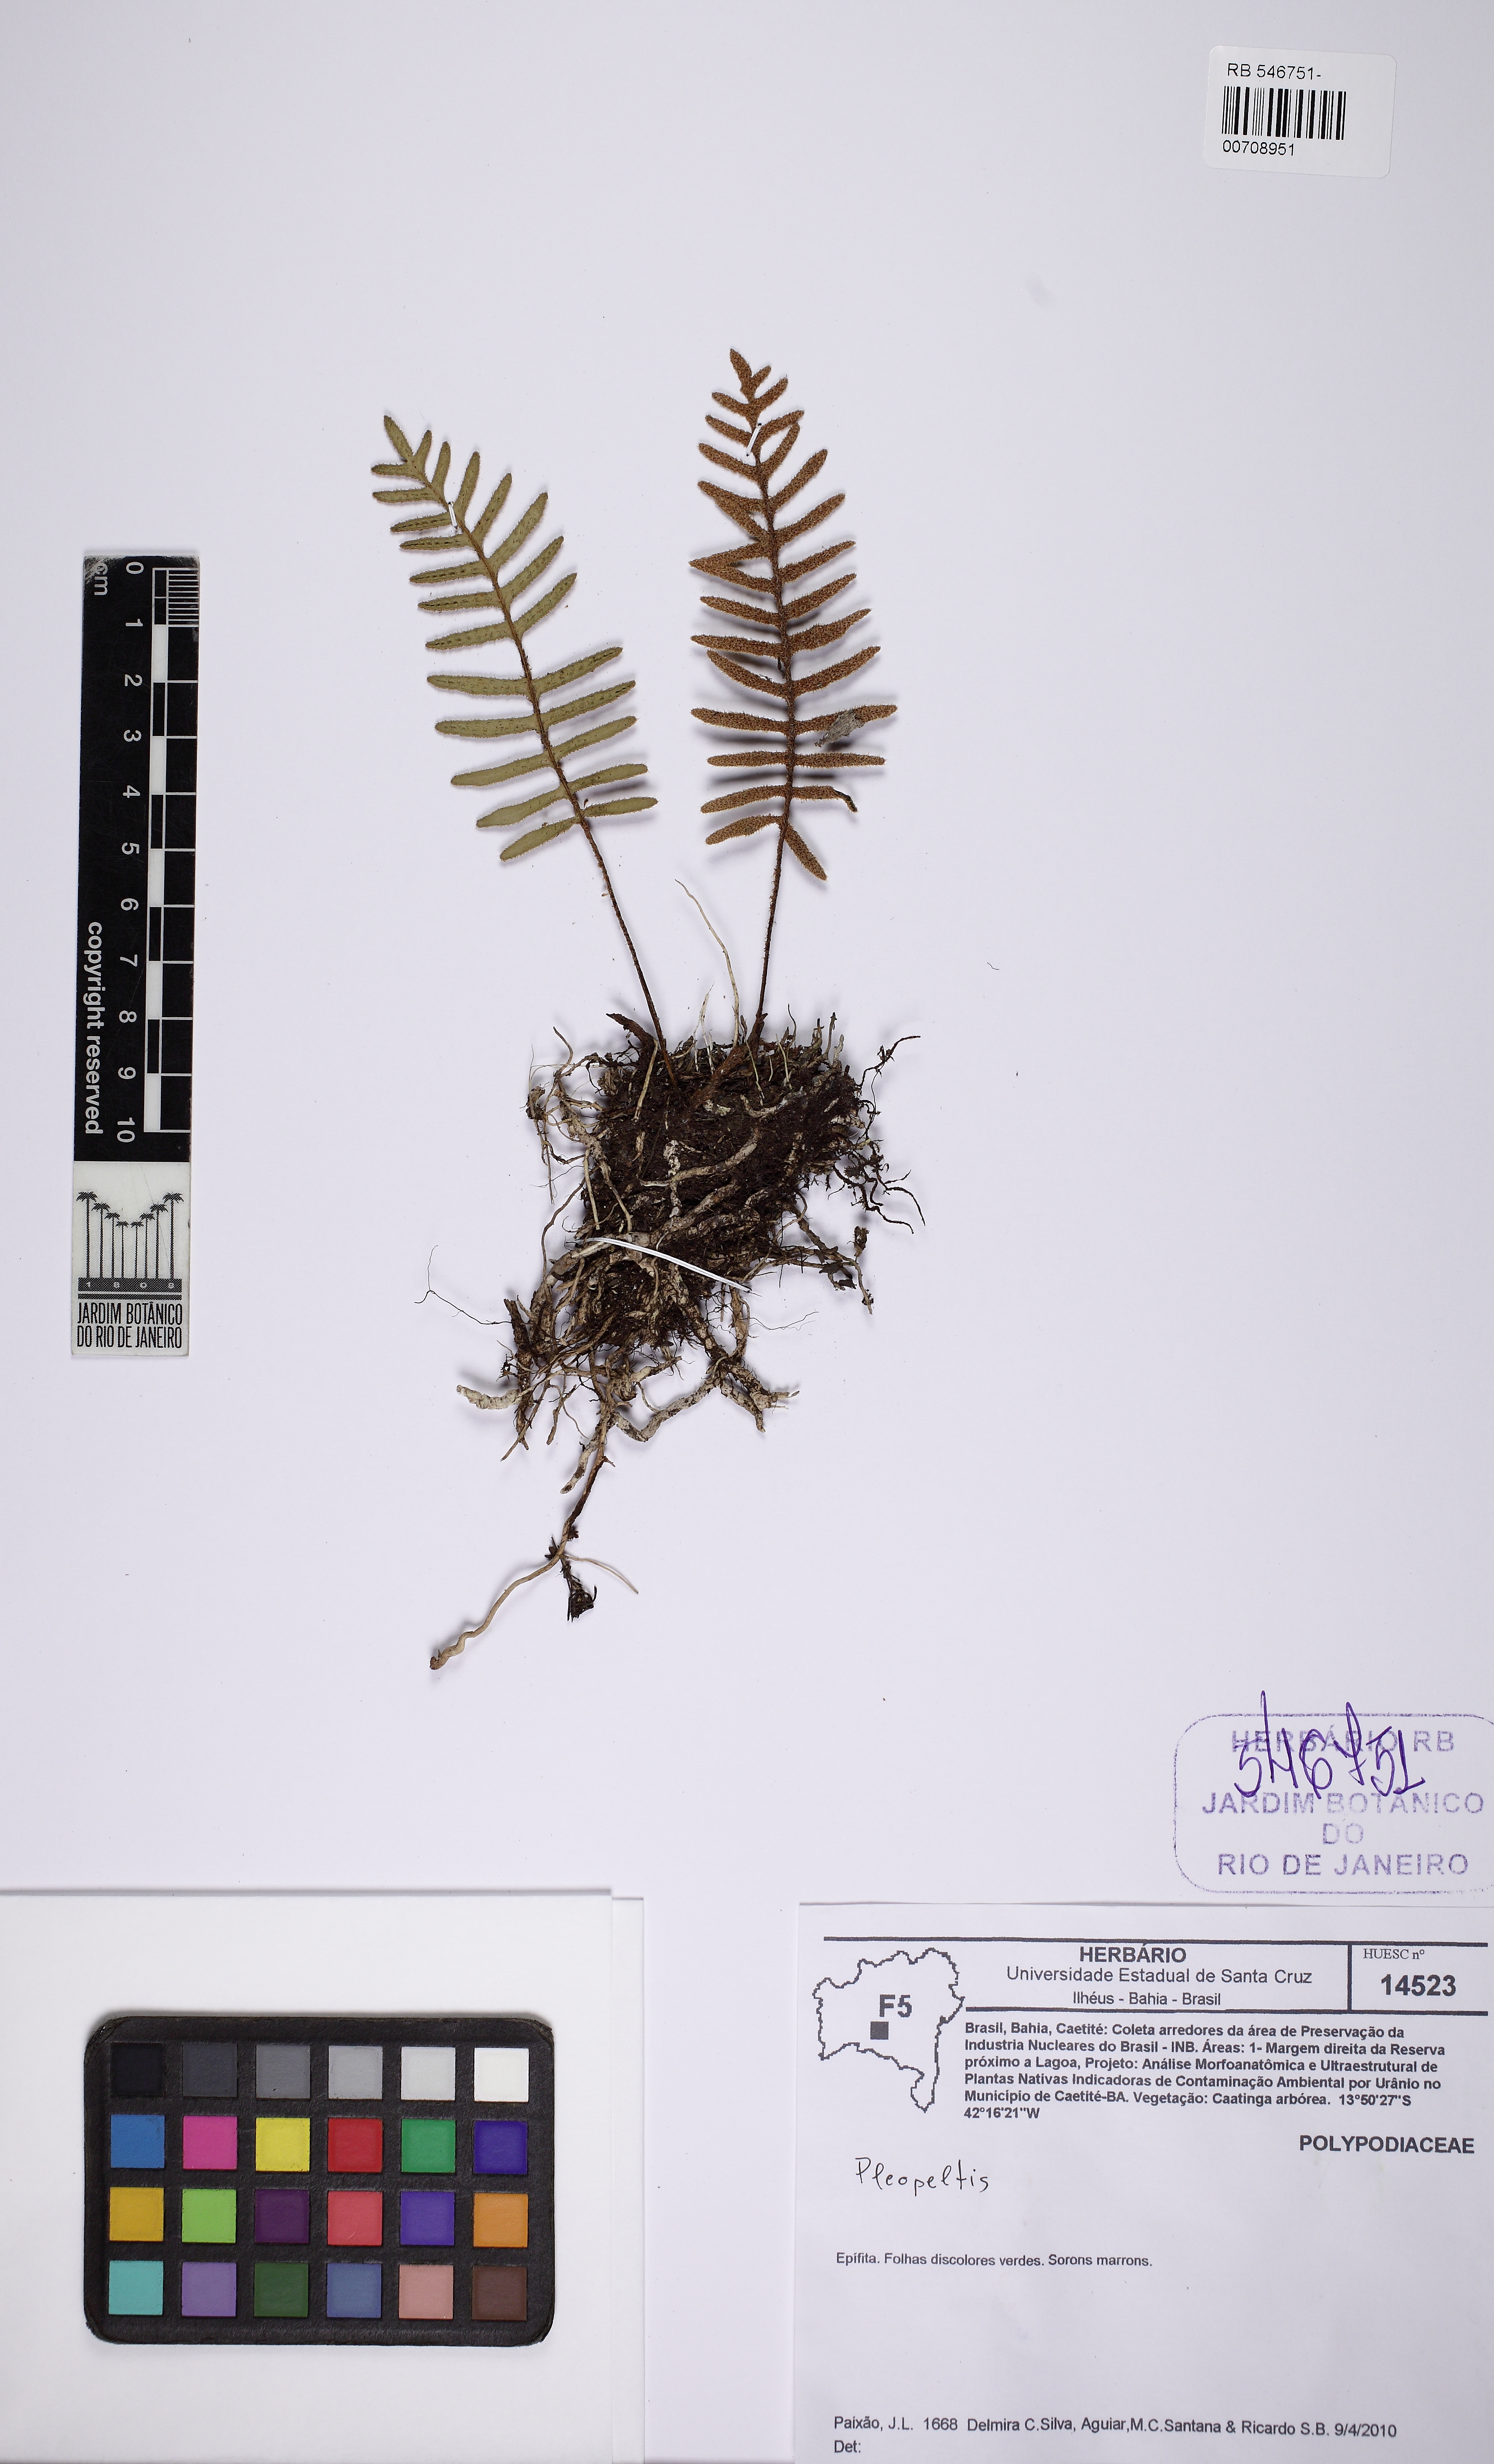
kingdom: Plantae
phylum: Tracheophyta
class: Polypodiopsida
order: Polypodiales
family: Polypodiaceae
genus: Pleopeltis
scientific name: Pleopeltis burchellii
